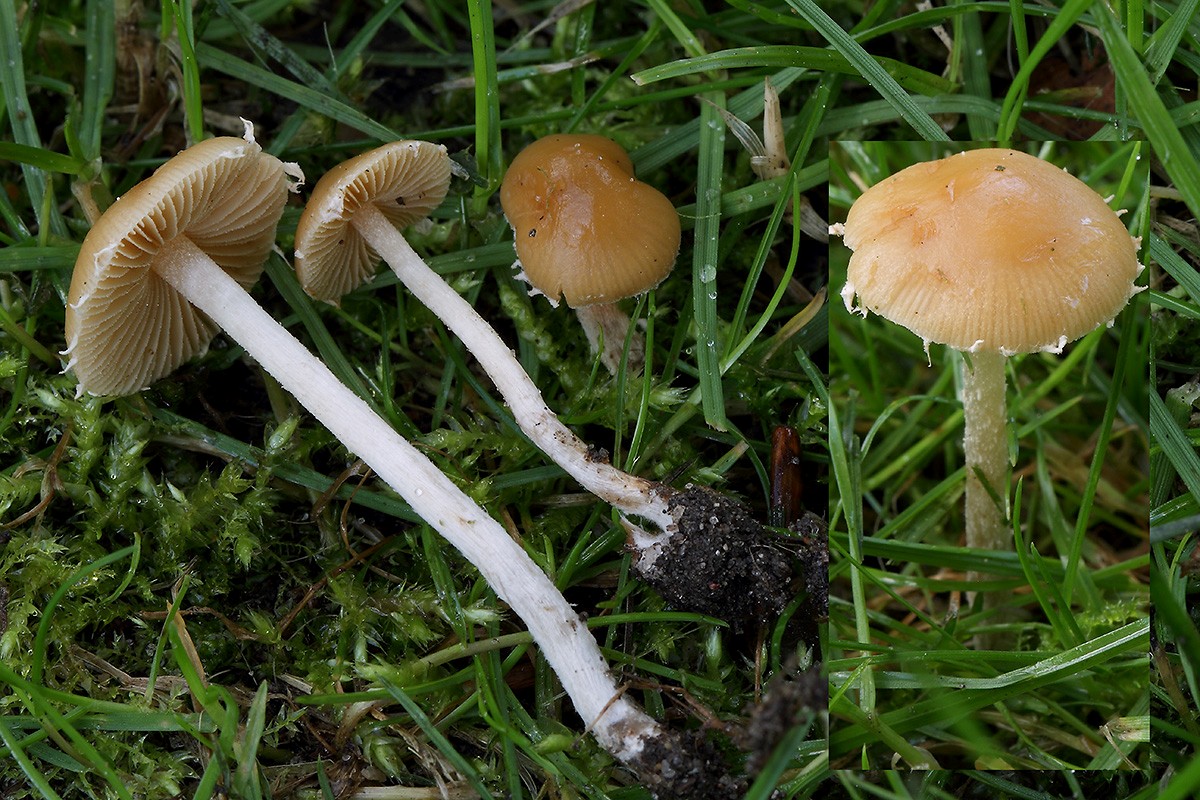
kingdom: Fungi
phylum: Basidiomycota
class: Agaricomycetes
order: Agaricales
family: Bolbitiaceae
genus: Conocybe
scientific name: Conocybe velata
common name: tandet dansehat
